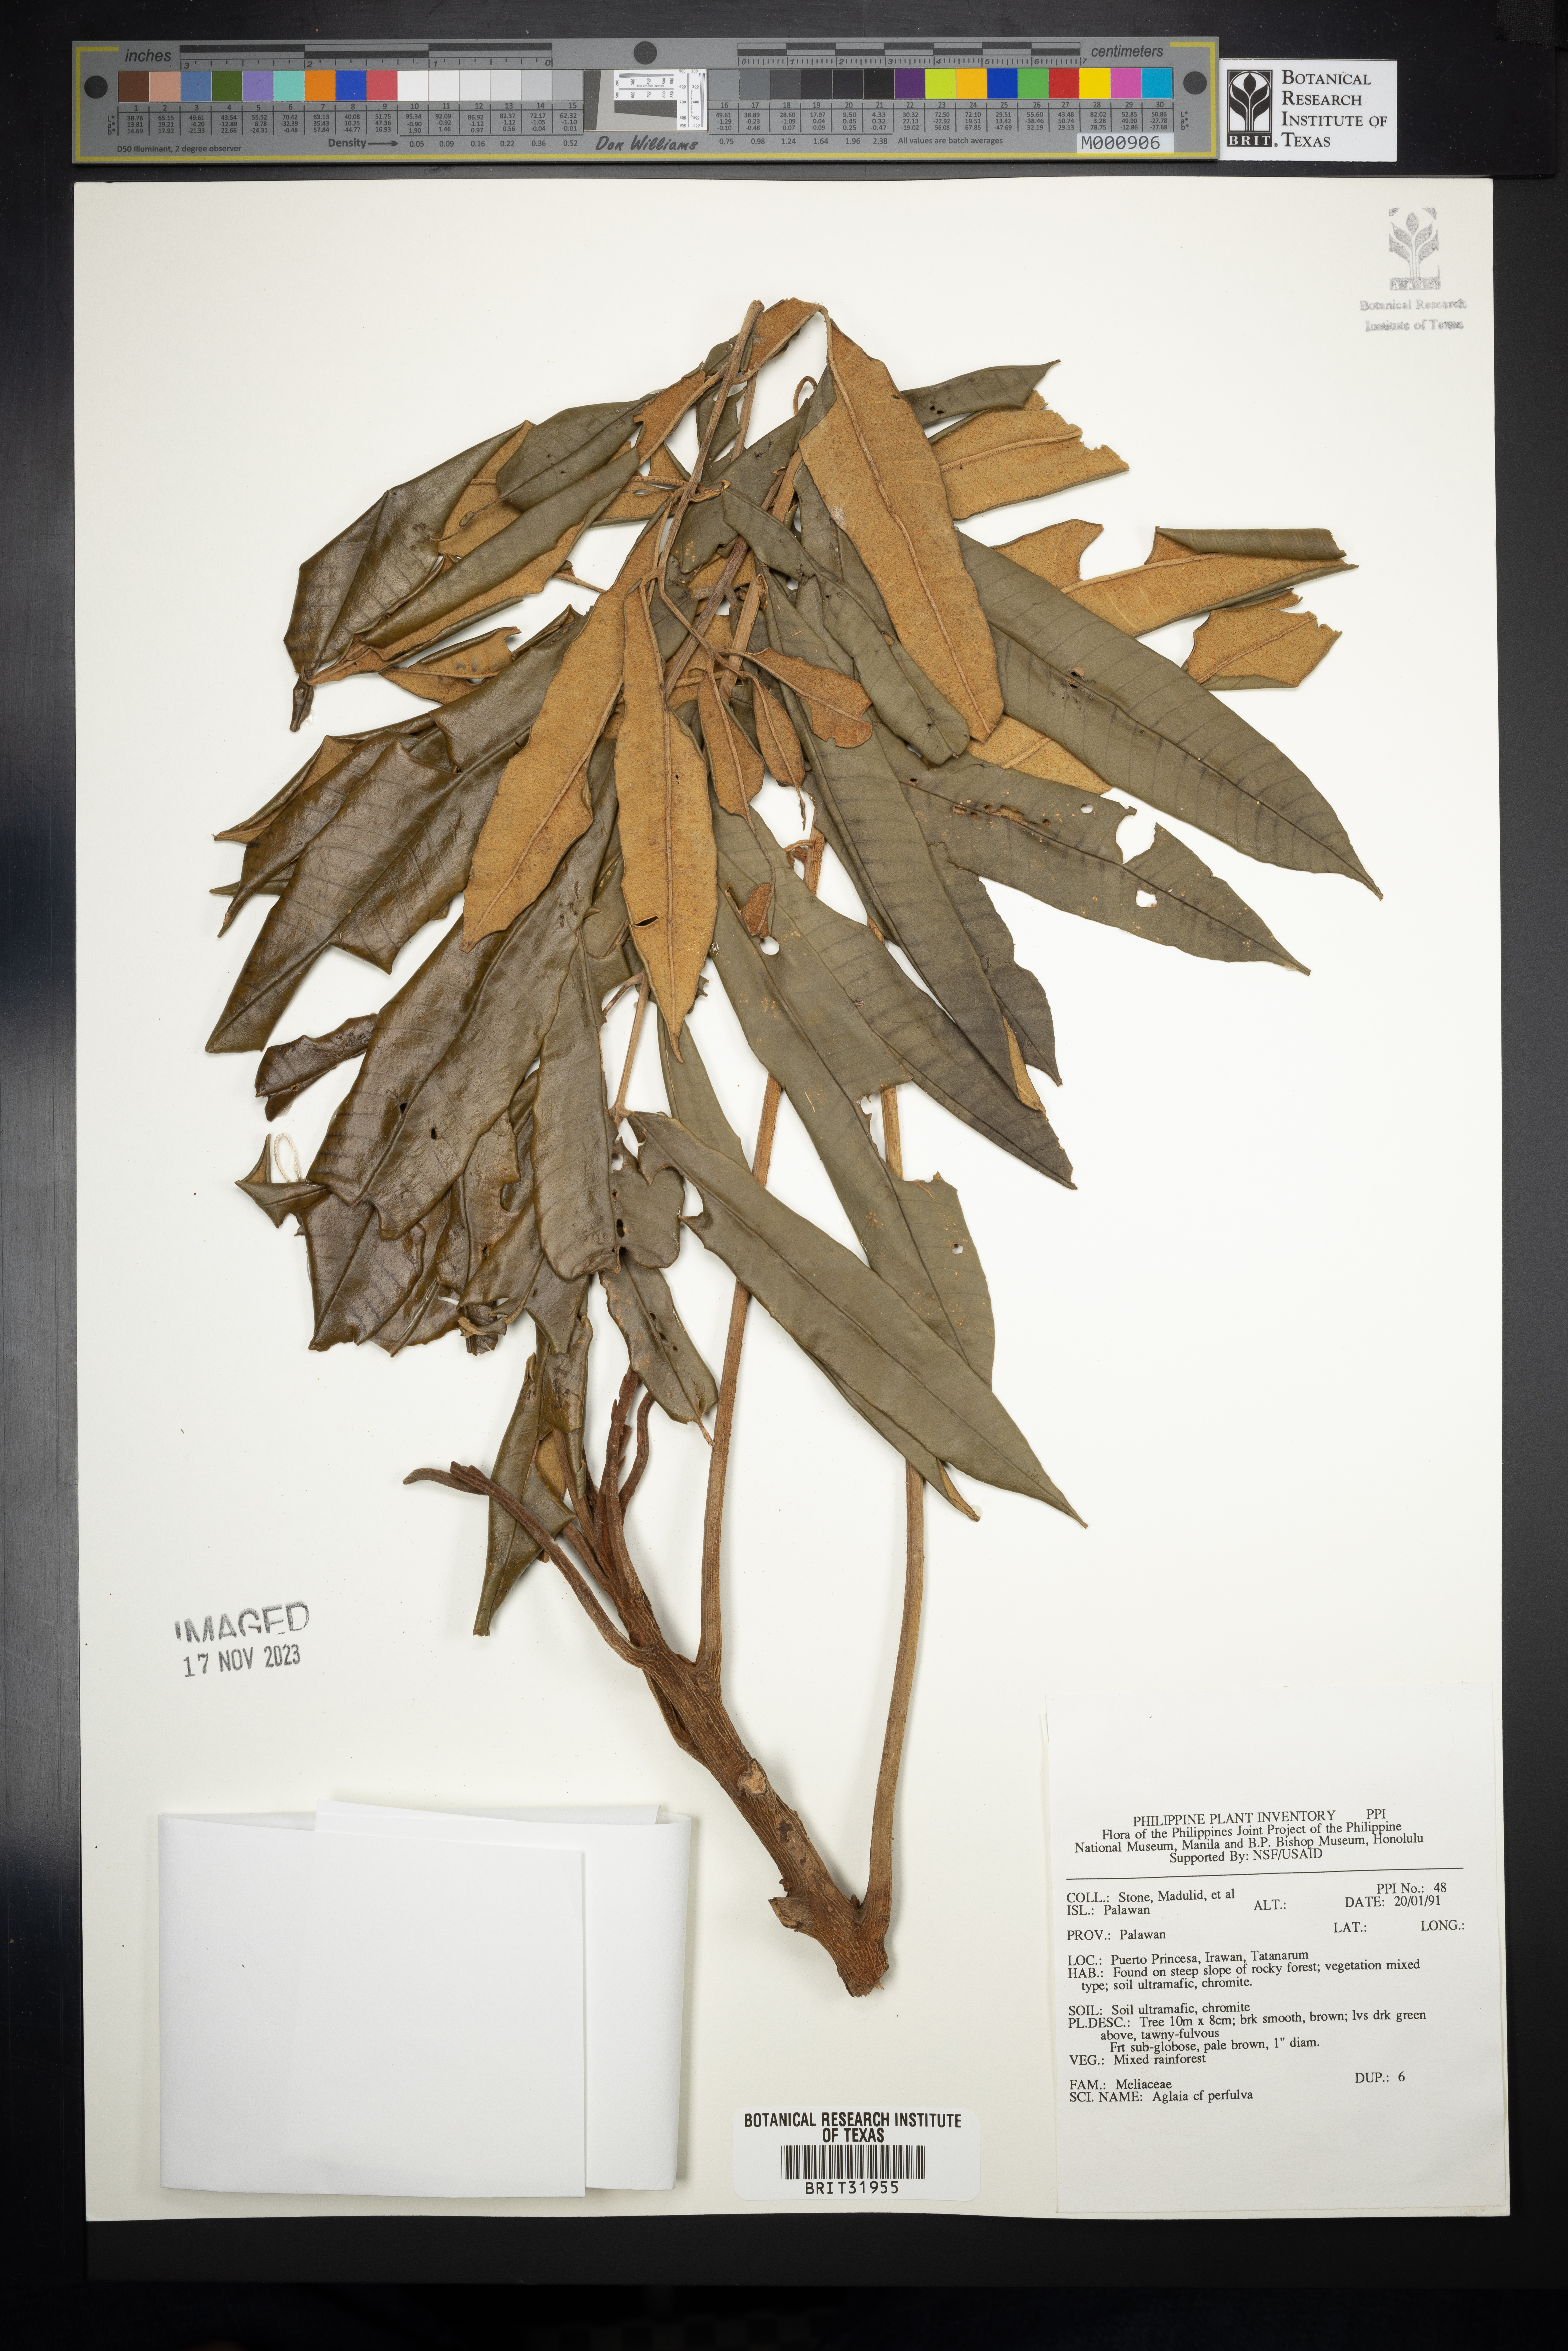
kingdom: Plantae
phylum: Tracheophyta
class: Magnoliopsida
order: Sapindales
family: Meliaceae
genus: Aglaia
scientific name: Aglaia grandis
